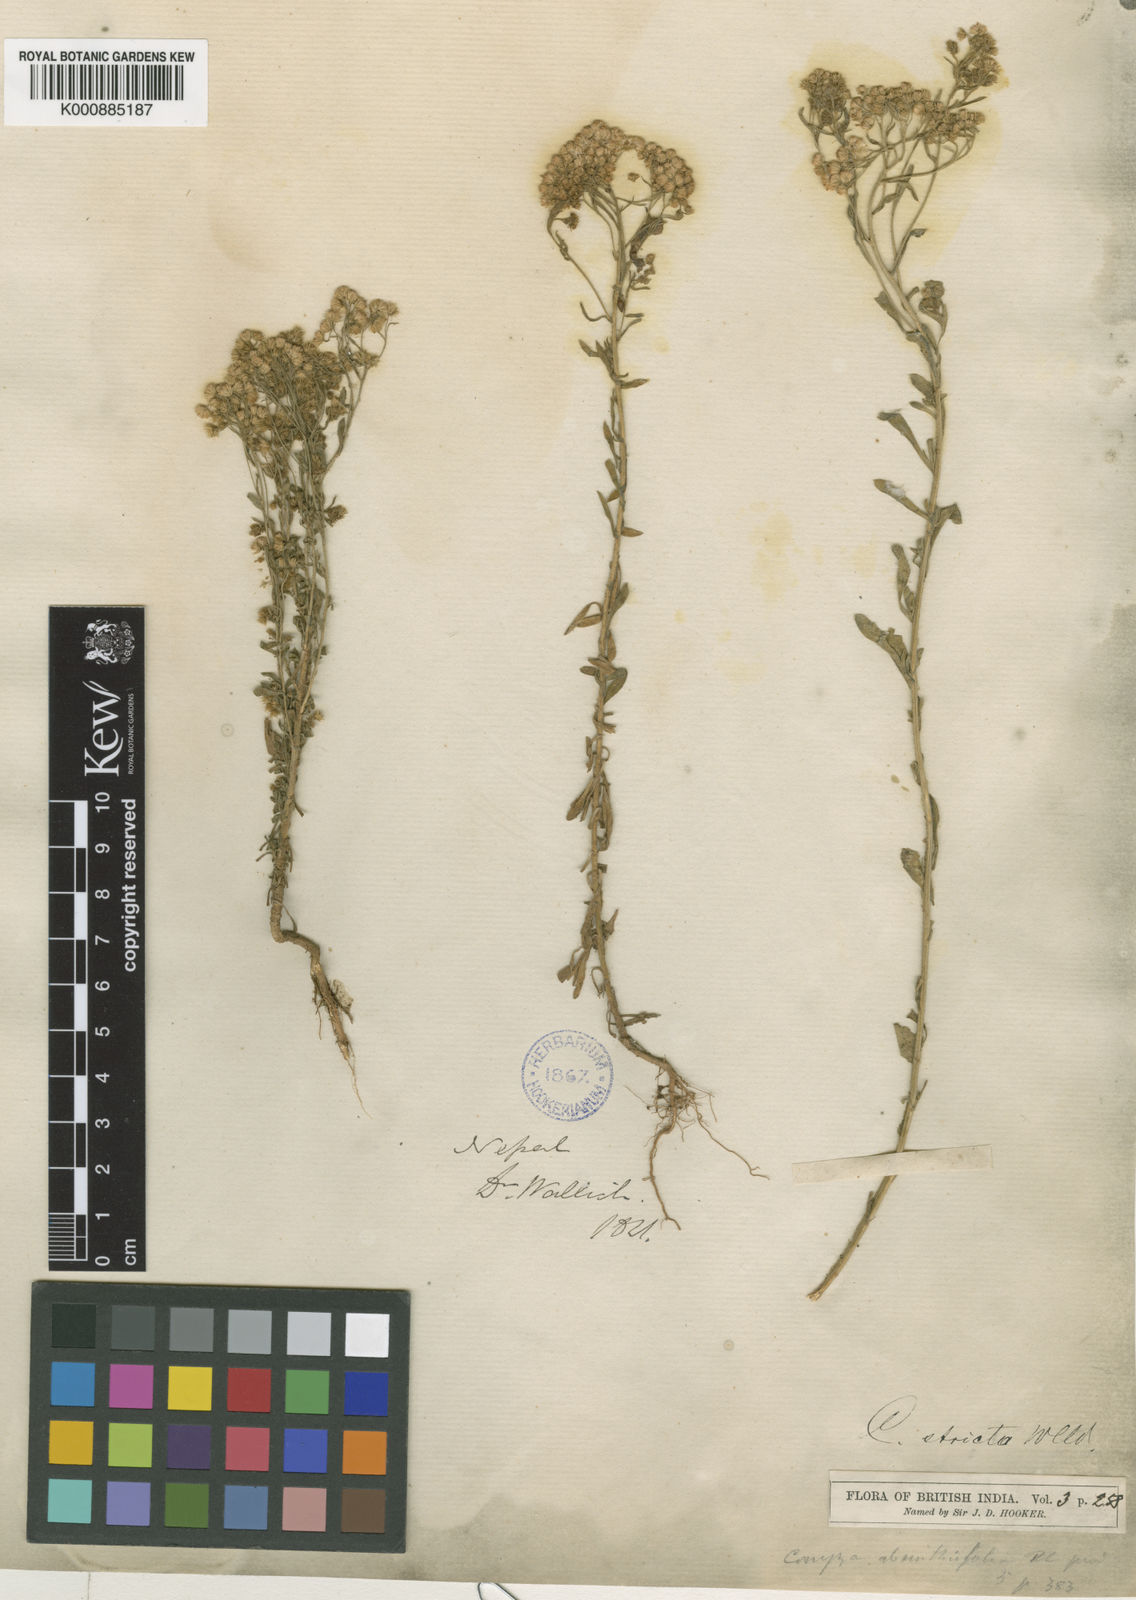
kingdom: Plantae
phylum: Tracheophyta
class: Magnoliopsida
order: Asterales
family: Asteraceae
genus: Nidorella
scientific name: Nidorella triloba
